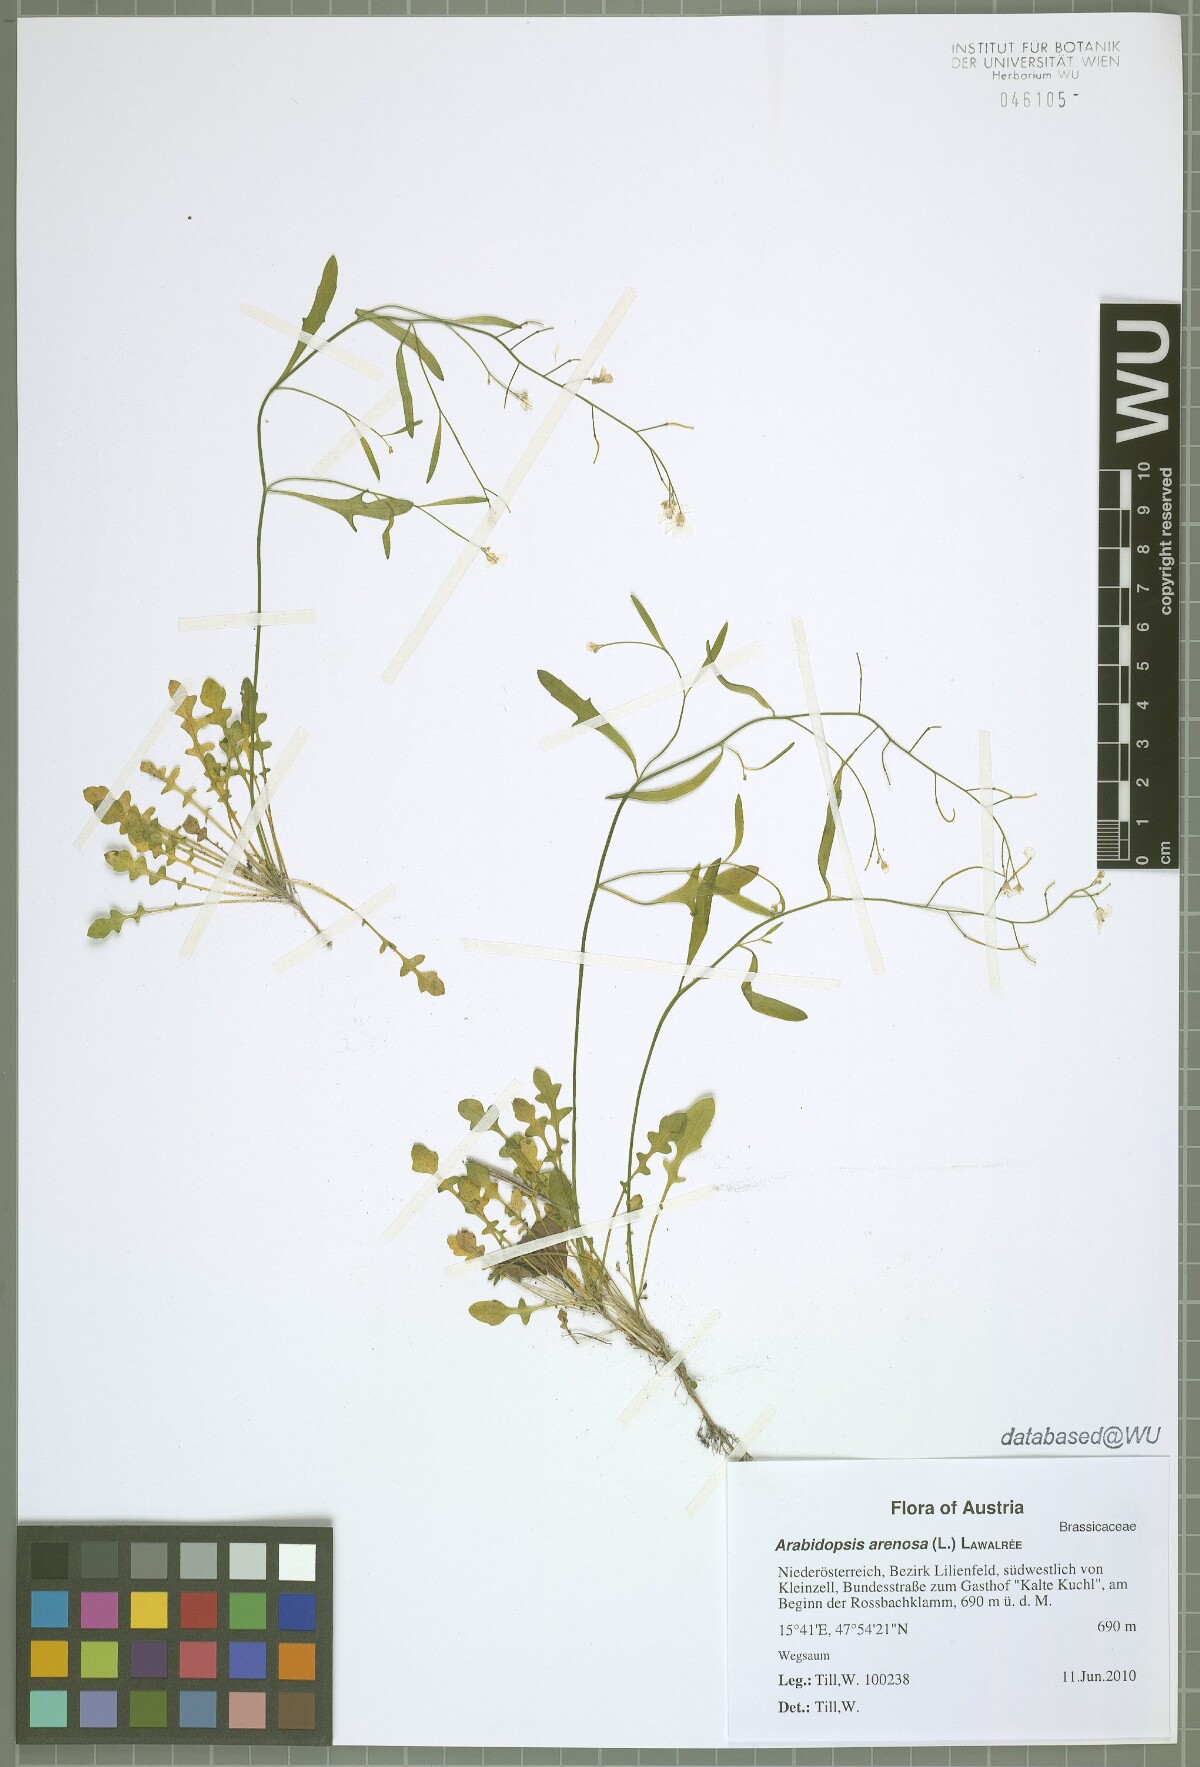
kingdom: Plantae
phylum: Tracheophyta
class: Magnoliopsida
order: Brassicales
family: Brassicaceae
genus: Arabidopsis
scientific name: Arabidopsis arenosa
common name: Sand rock-cress
